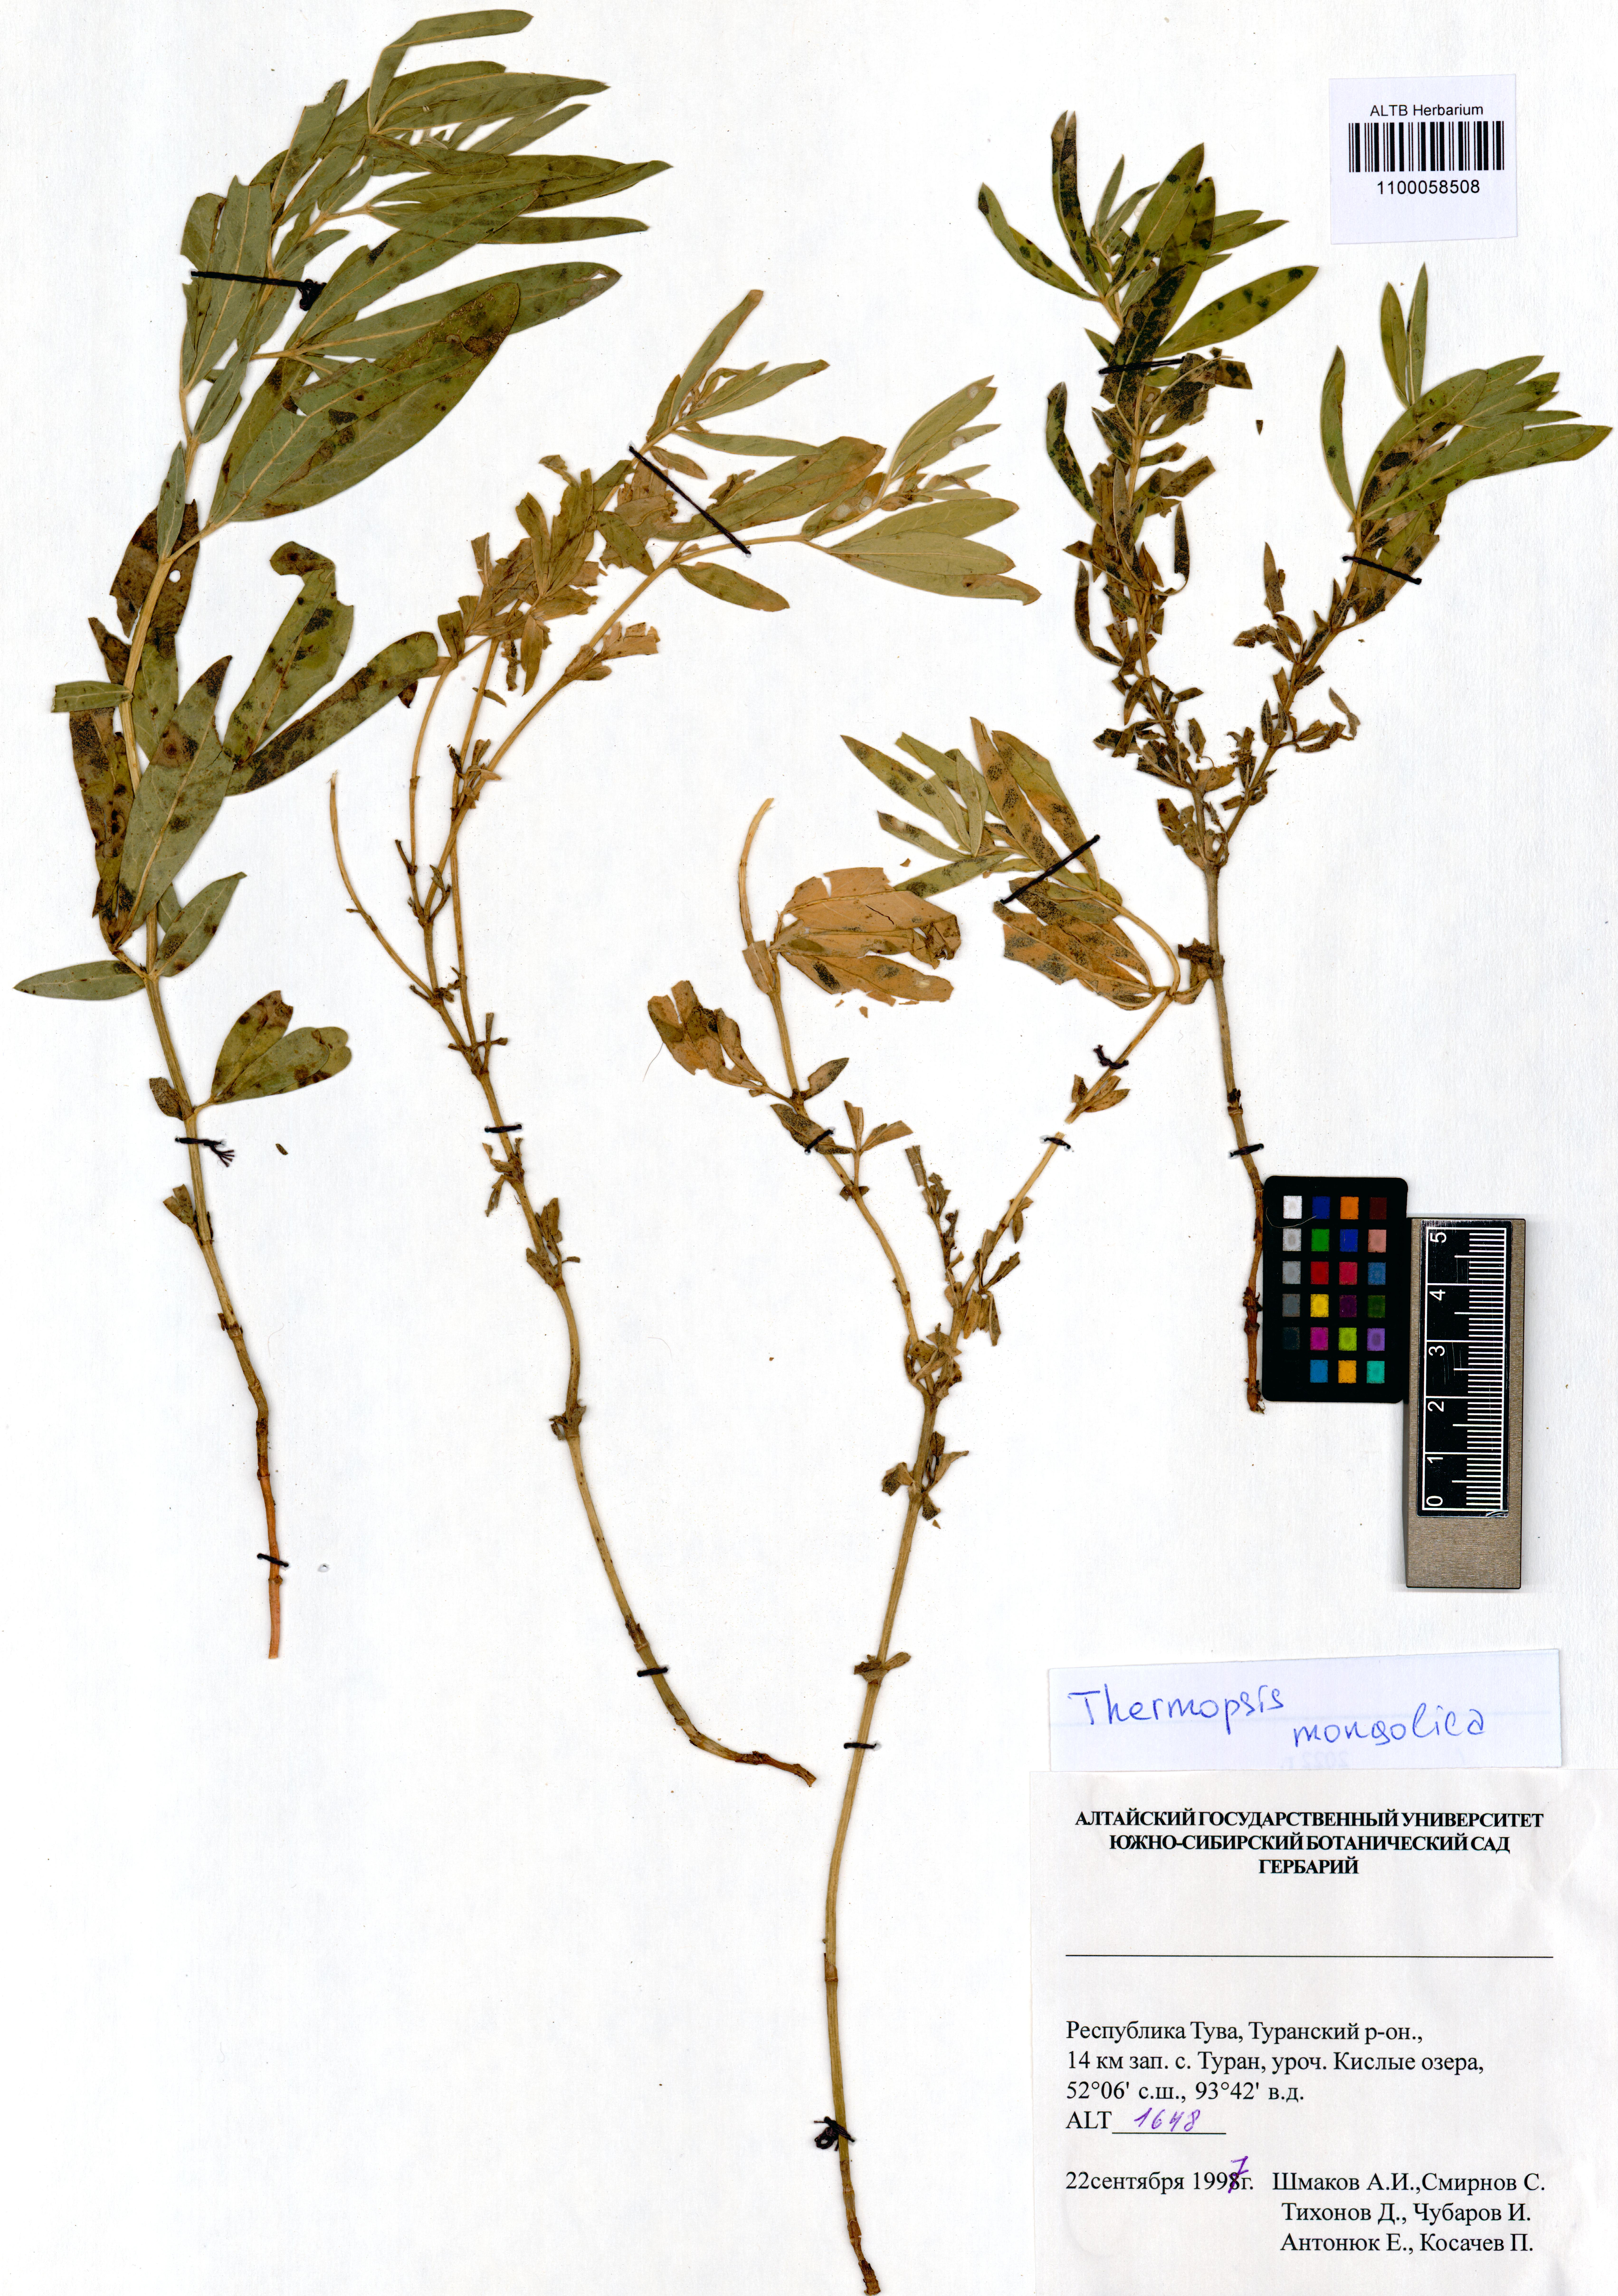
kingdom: Plantae
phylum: Tracheophyta
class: Magnoliopsida
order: Fabales
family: Fabaceae
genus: Thermopsis
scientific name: Thermopsis mongolica
